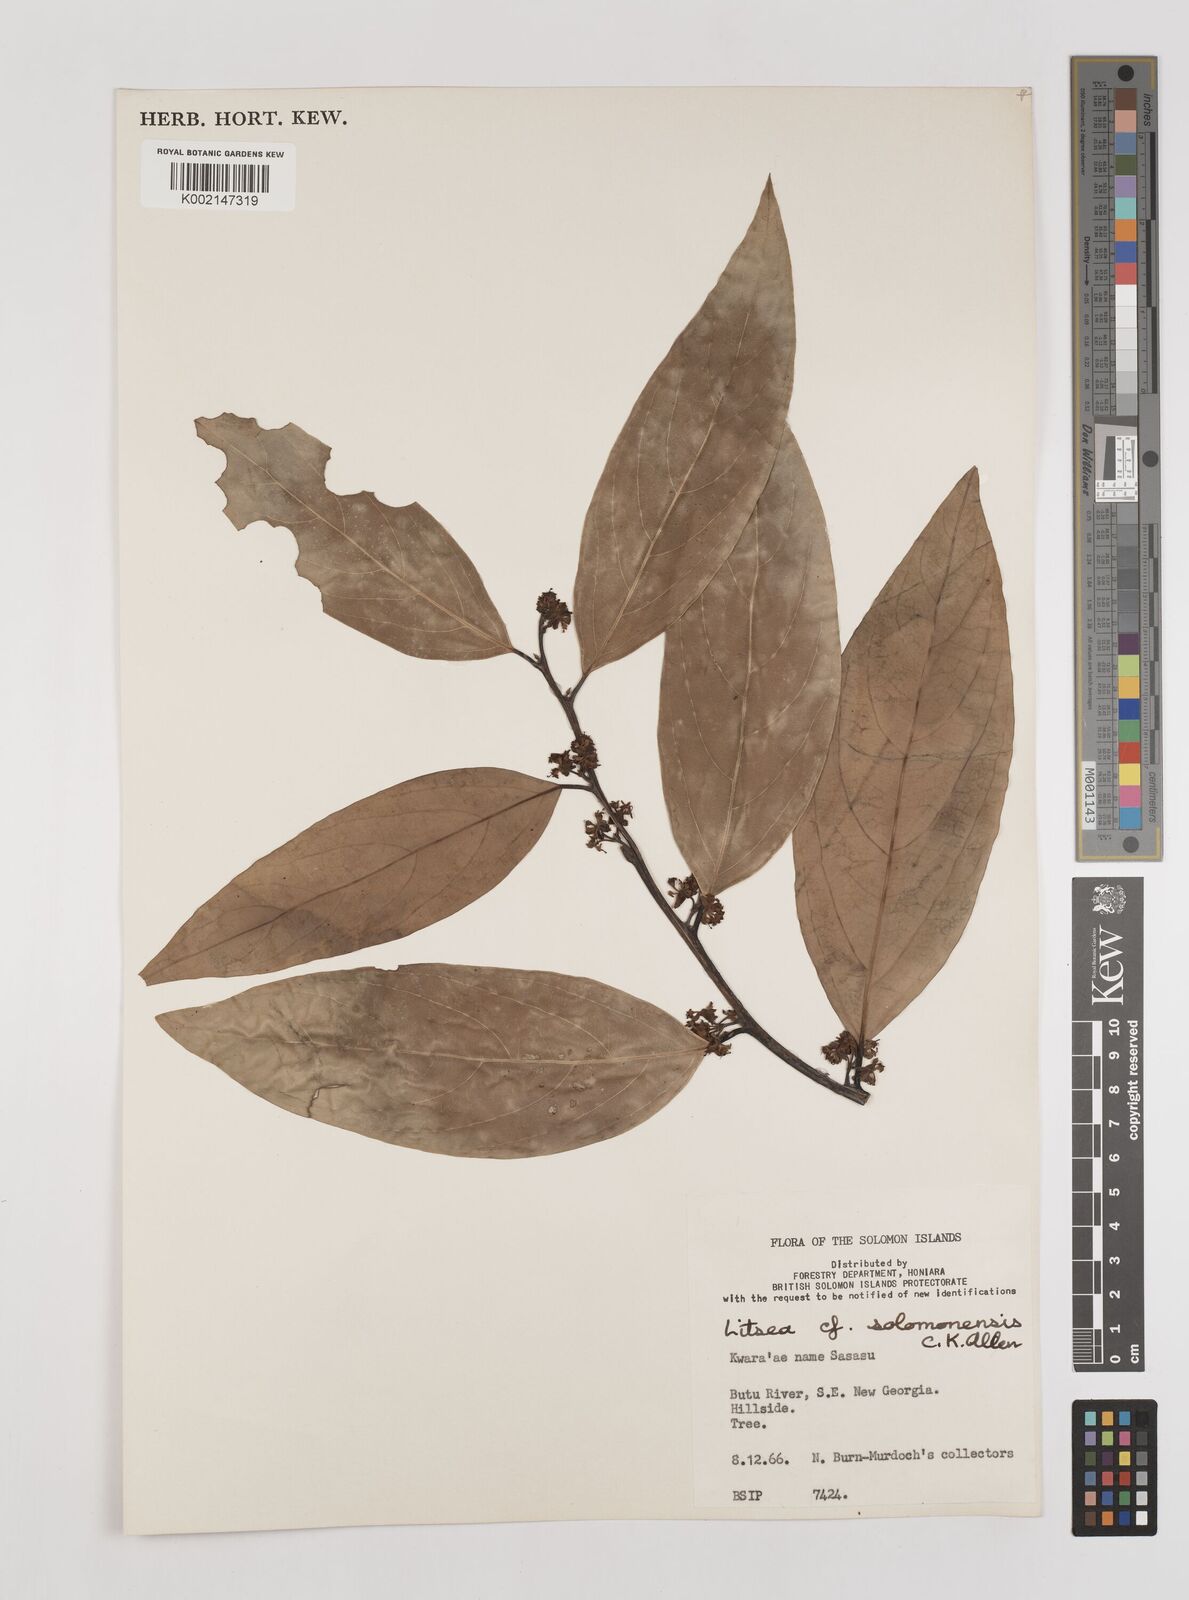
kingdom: Plantae
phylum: Tracheophyta
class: Magnoliopsida
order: Laurales
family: Lauraceae
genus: Litsea
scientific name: Litsea timoriana
